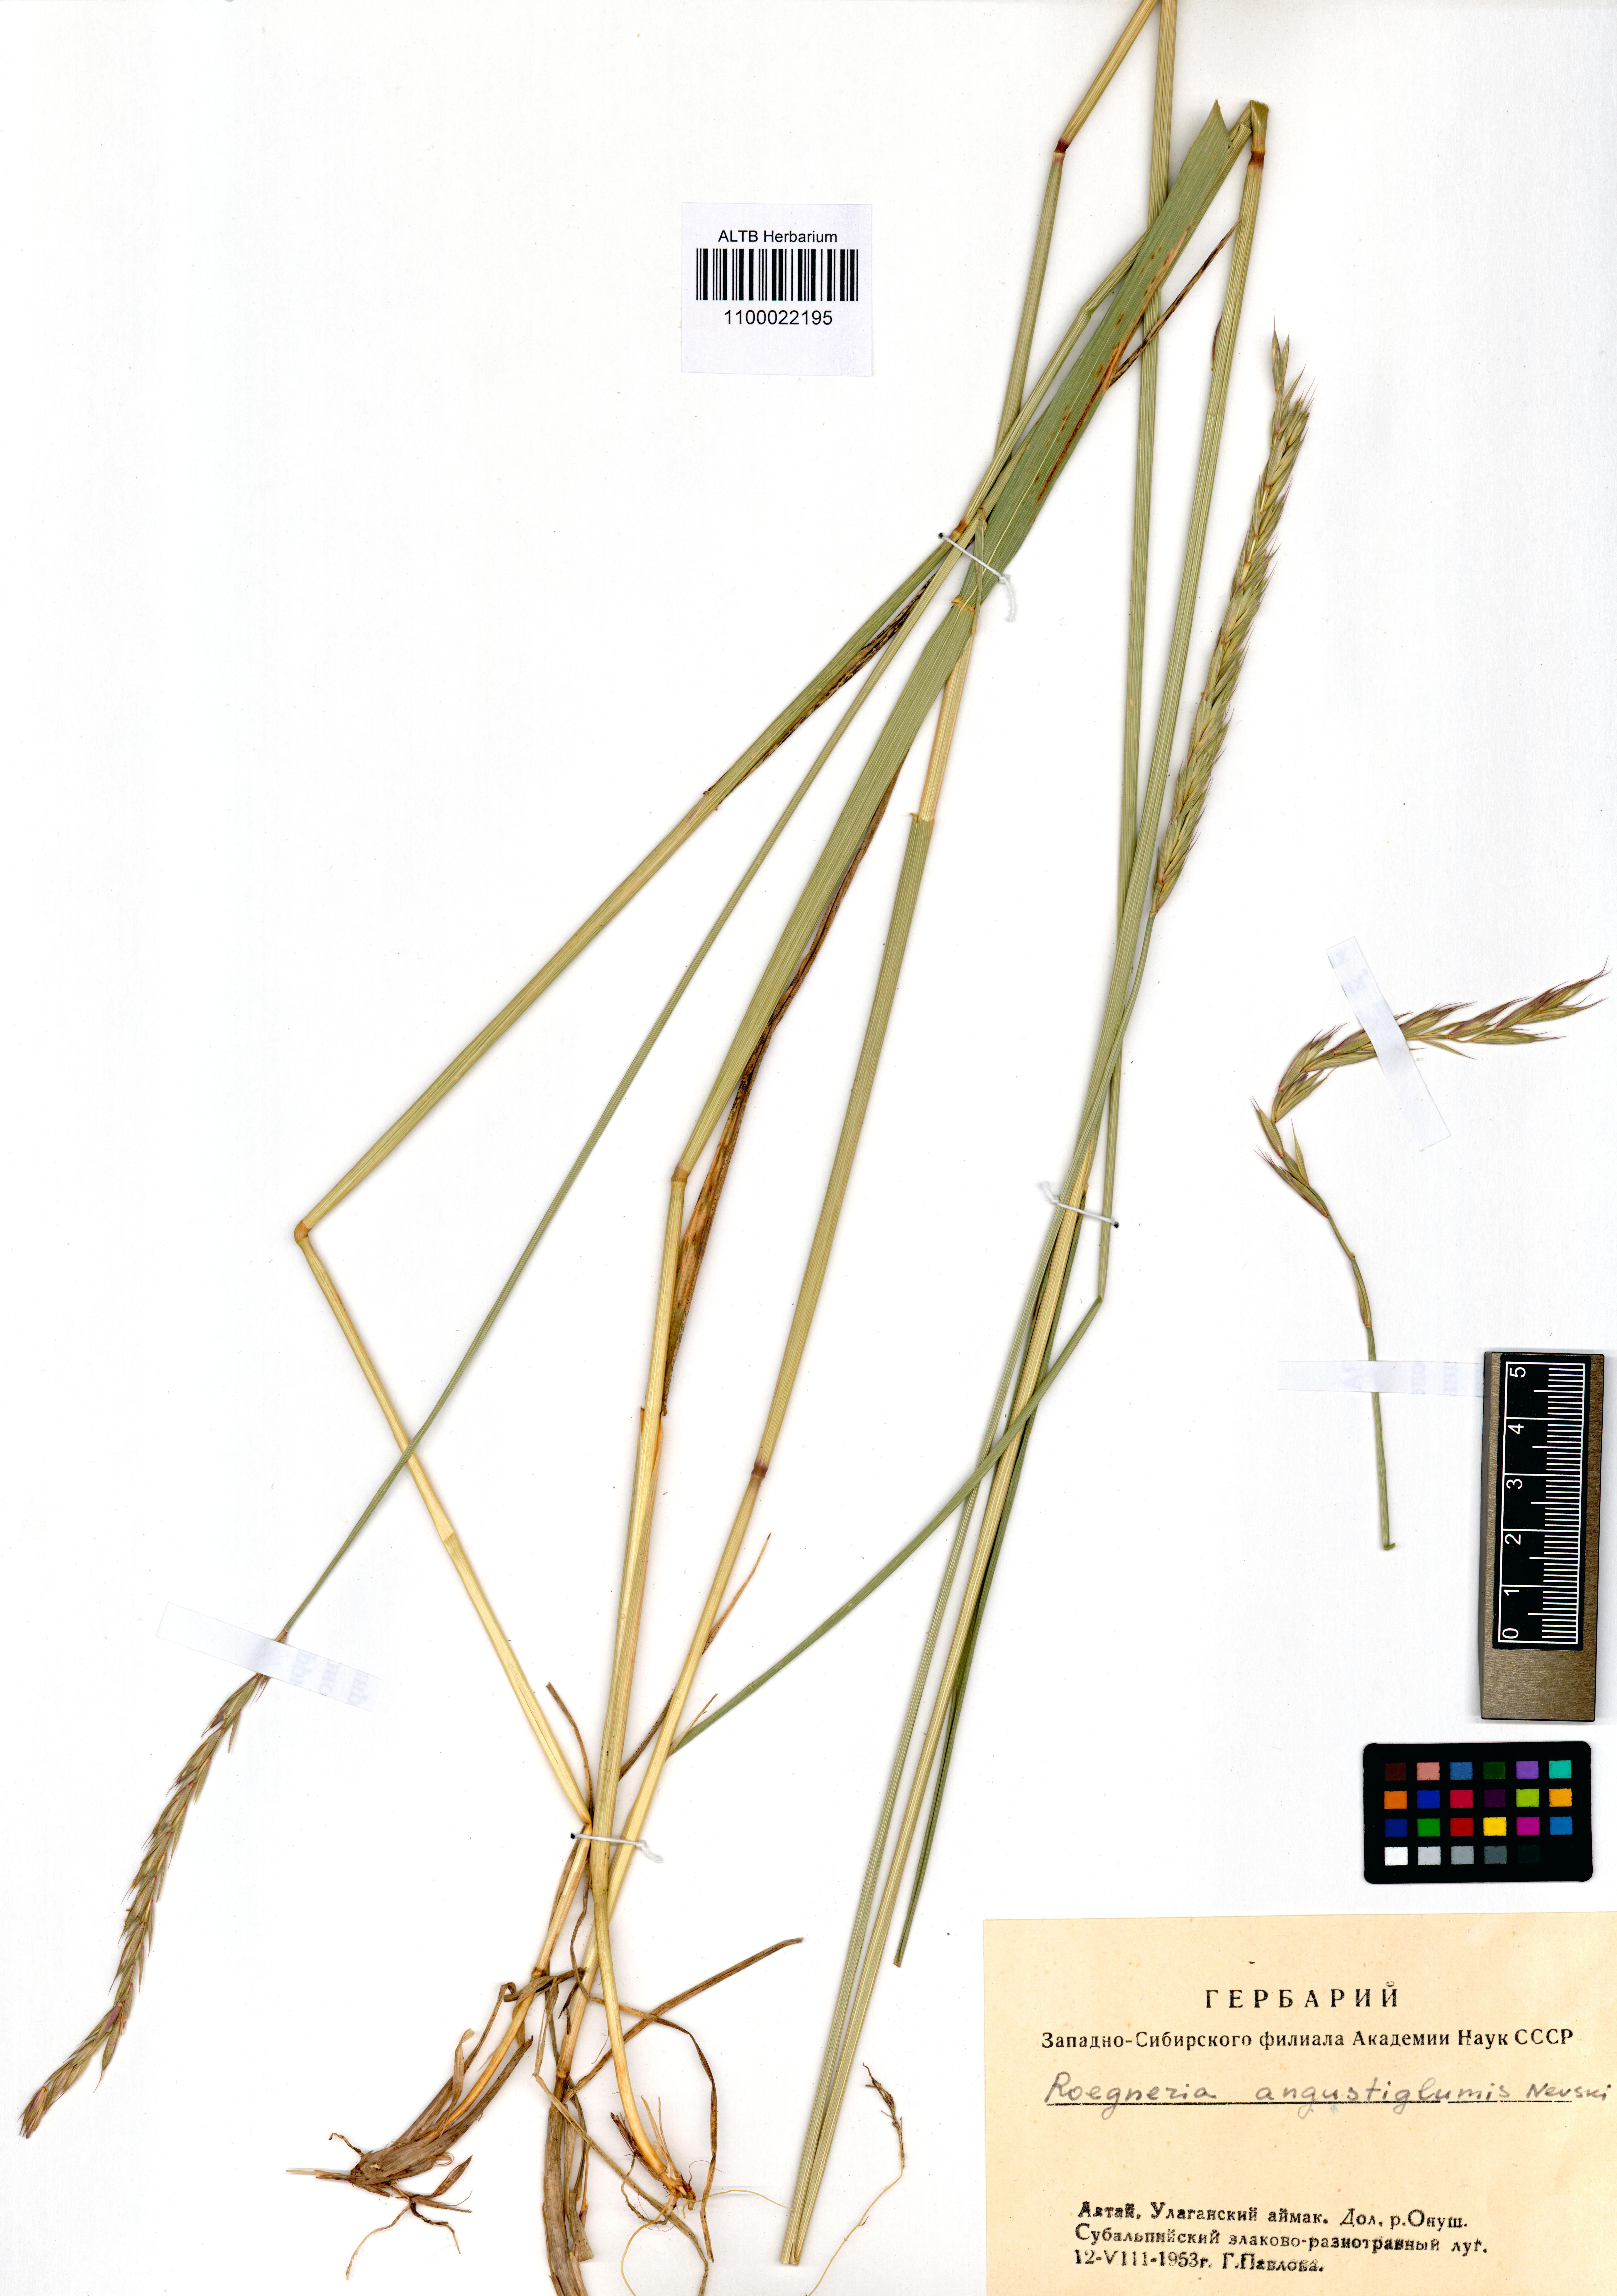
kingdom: Plantae
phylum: Tracheophyta
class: Liliopsida
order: Poales
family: Poaceae
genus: Elymus
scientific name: Elymus mutabilis
